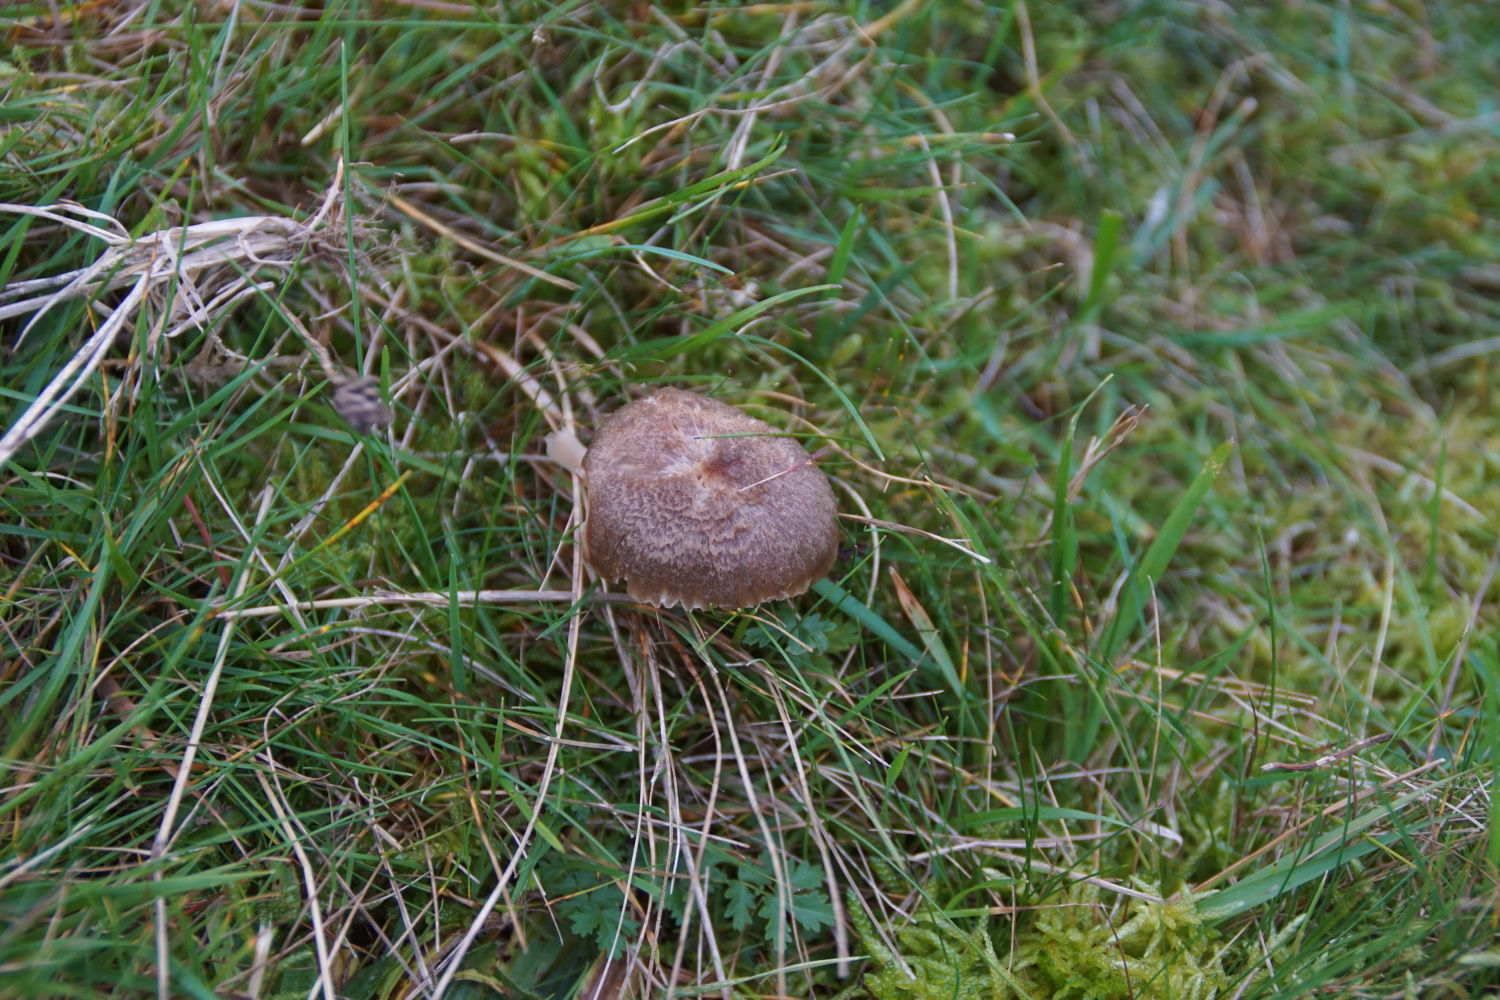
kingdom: Fungi
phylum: Basidiomycota
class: Agaricomycetes
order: Agaricales
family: Hygrophoraceae
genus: Neohygrocybe
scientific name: Neohygrocybe nitrata
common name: stinkende vokshat
